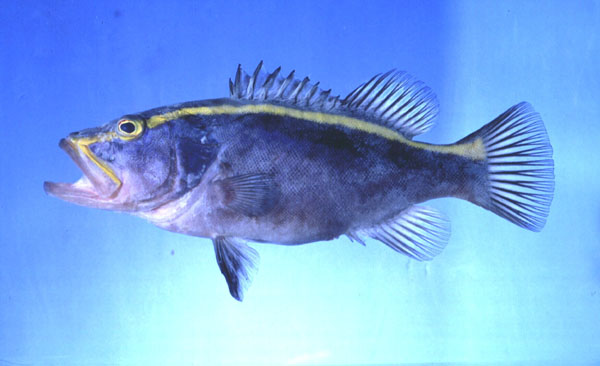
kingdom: Animalia
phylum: Chordata
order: Perciformes
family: Serranidae
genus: Aulacocephalus
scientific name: Aulacocephalus temminckii
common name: Goldribbon soapfish
